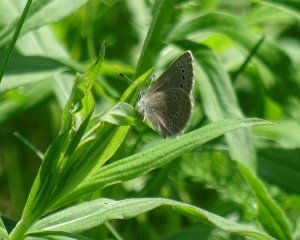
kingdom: Animalia
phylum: Arthropoda
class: Insecta
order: Lepidoptera
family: Lycaenidae
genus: Glaucopsyche
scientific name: Glaucopsyche lygdamus
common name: Silvery Blue
